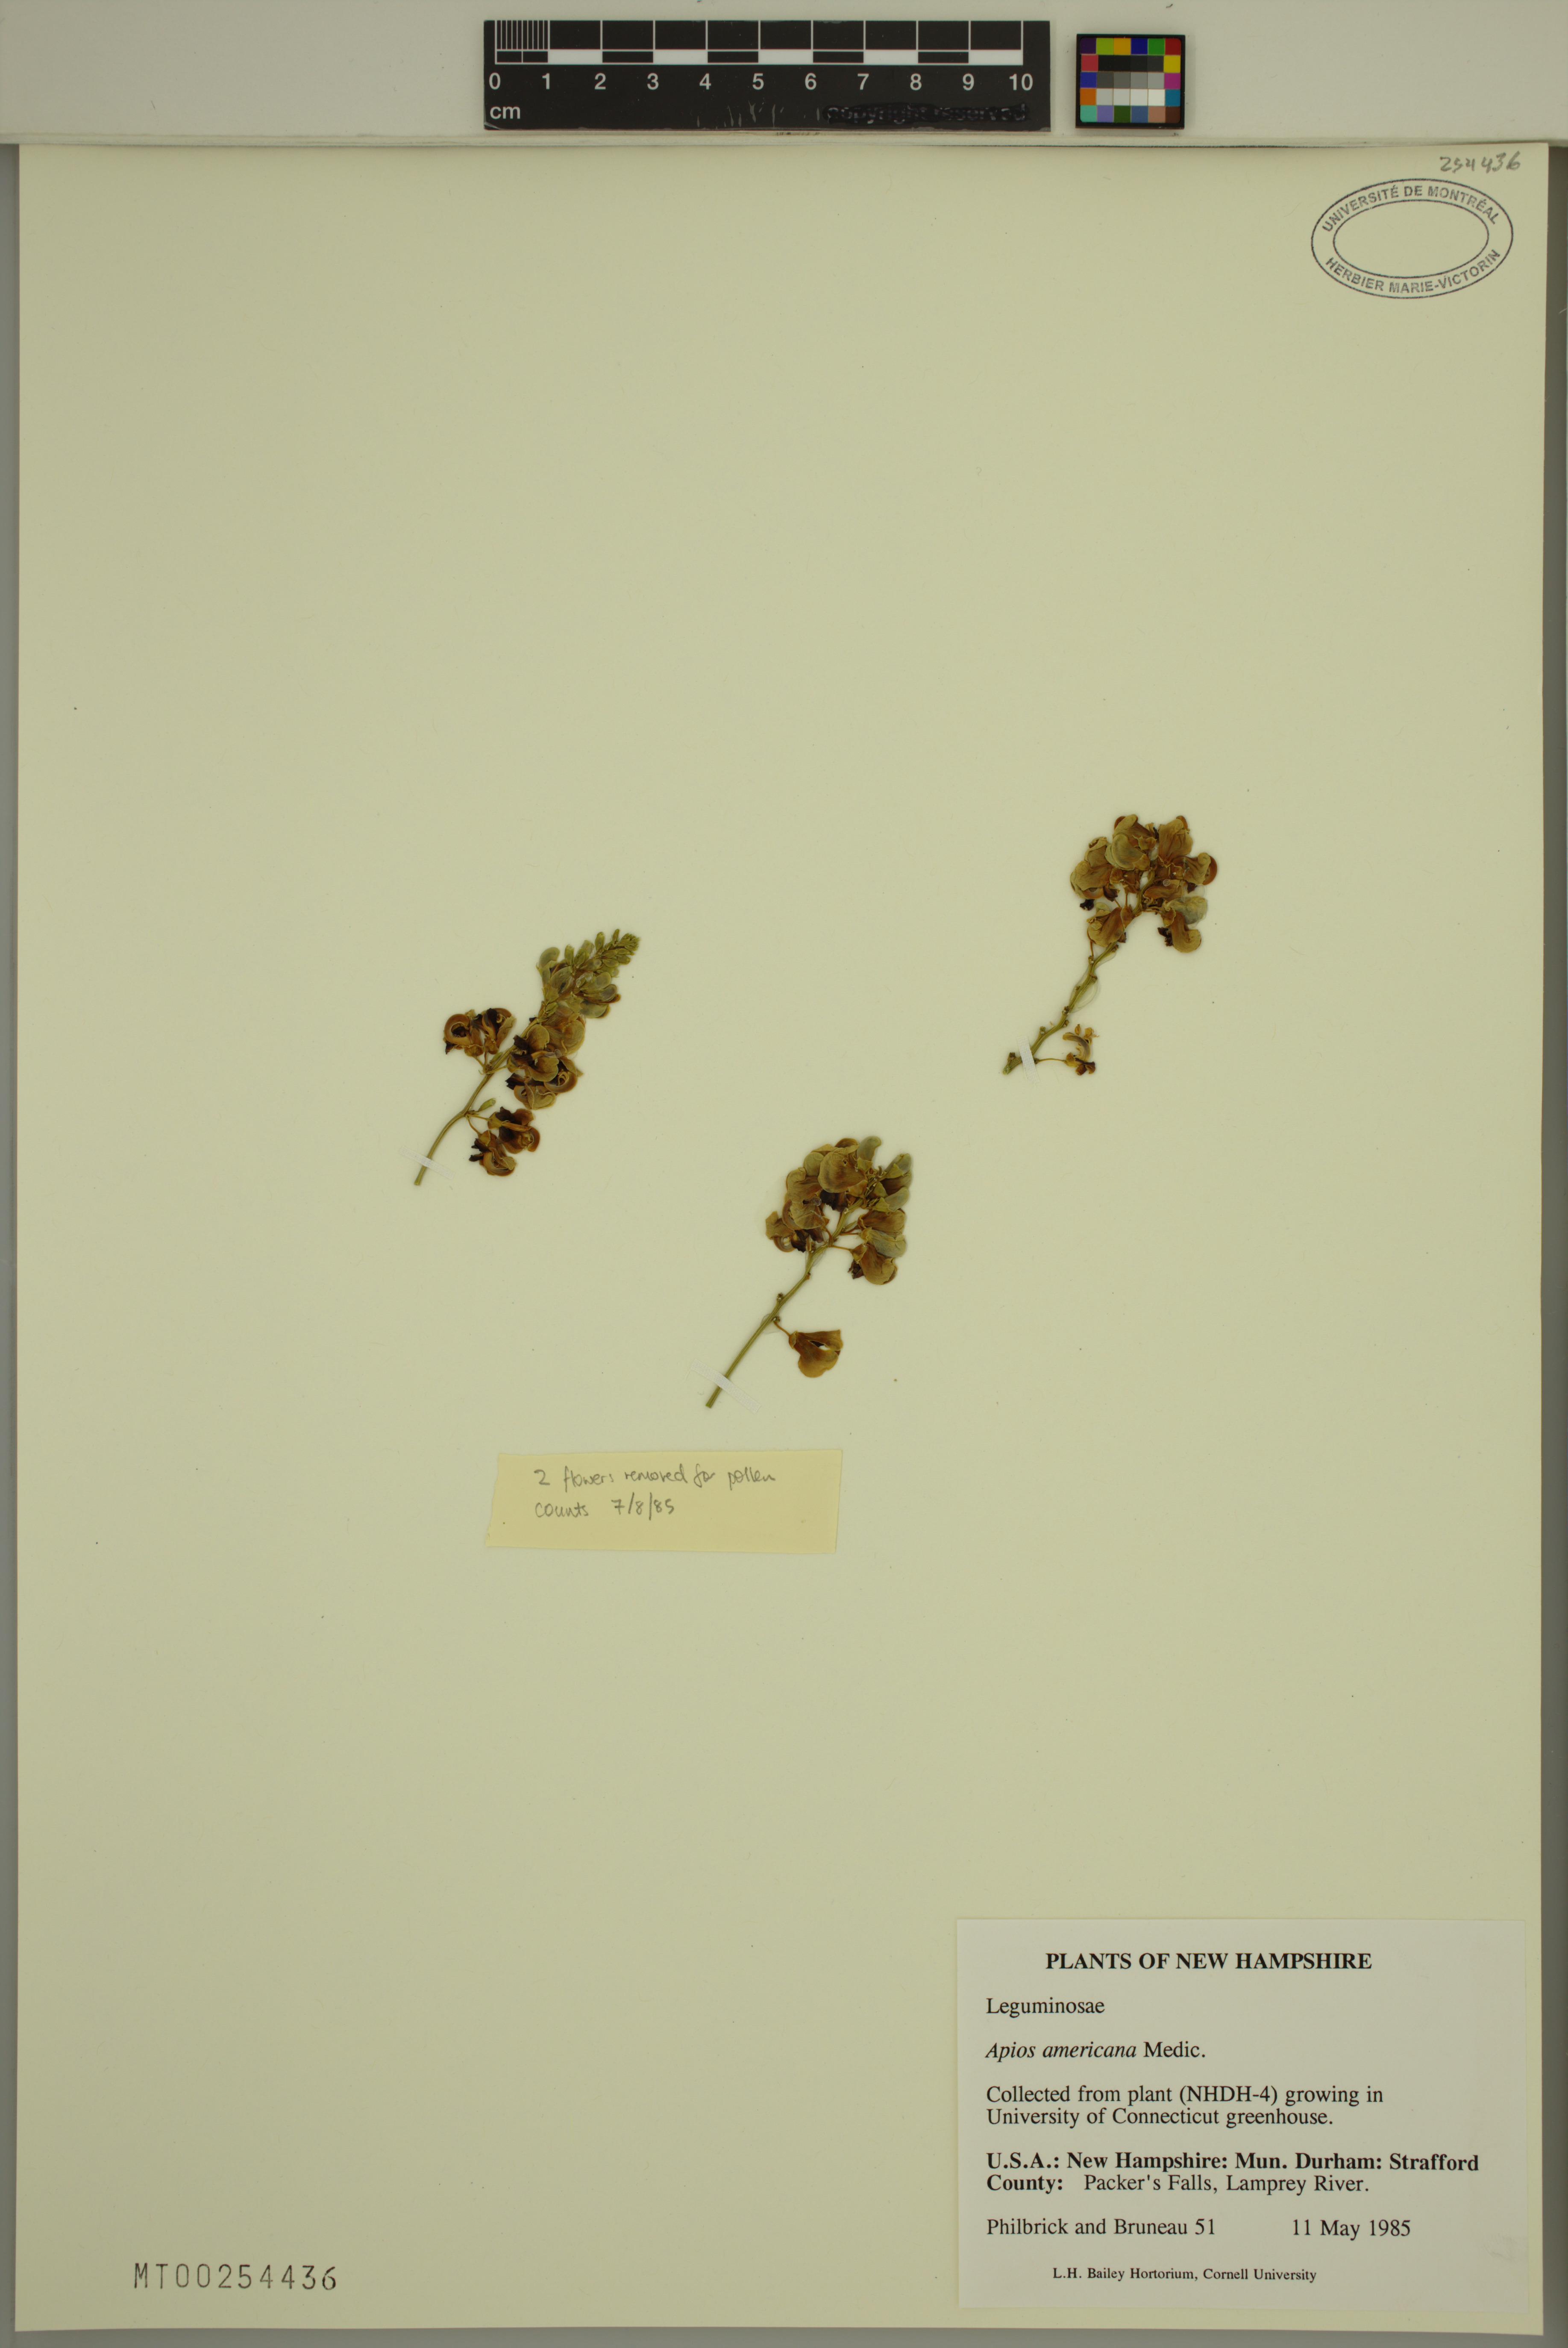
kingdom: Plantae
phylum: Tracheophyta
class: Magnoliopsida
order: Fabales
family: Fabaceae
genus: Apios
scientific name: Apios americana
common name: American potato-bean
